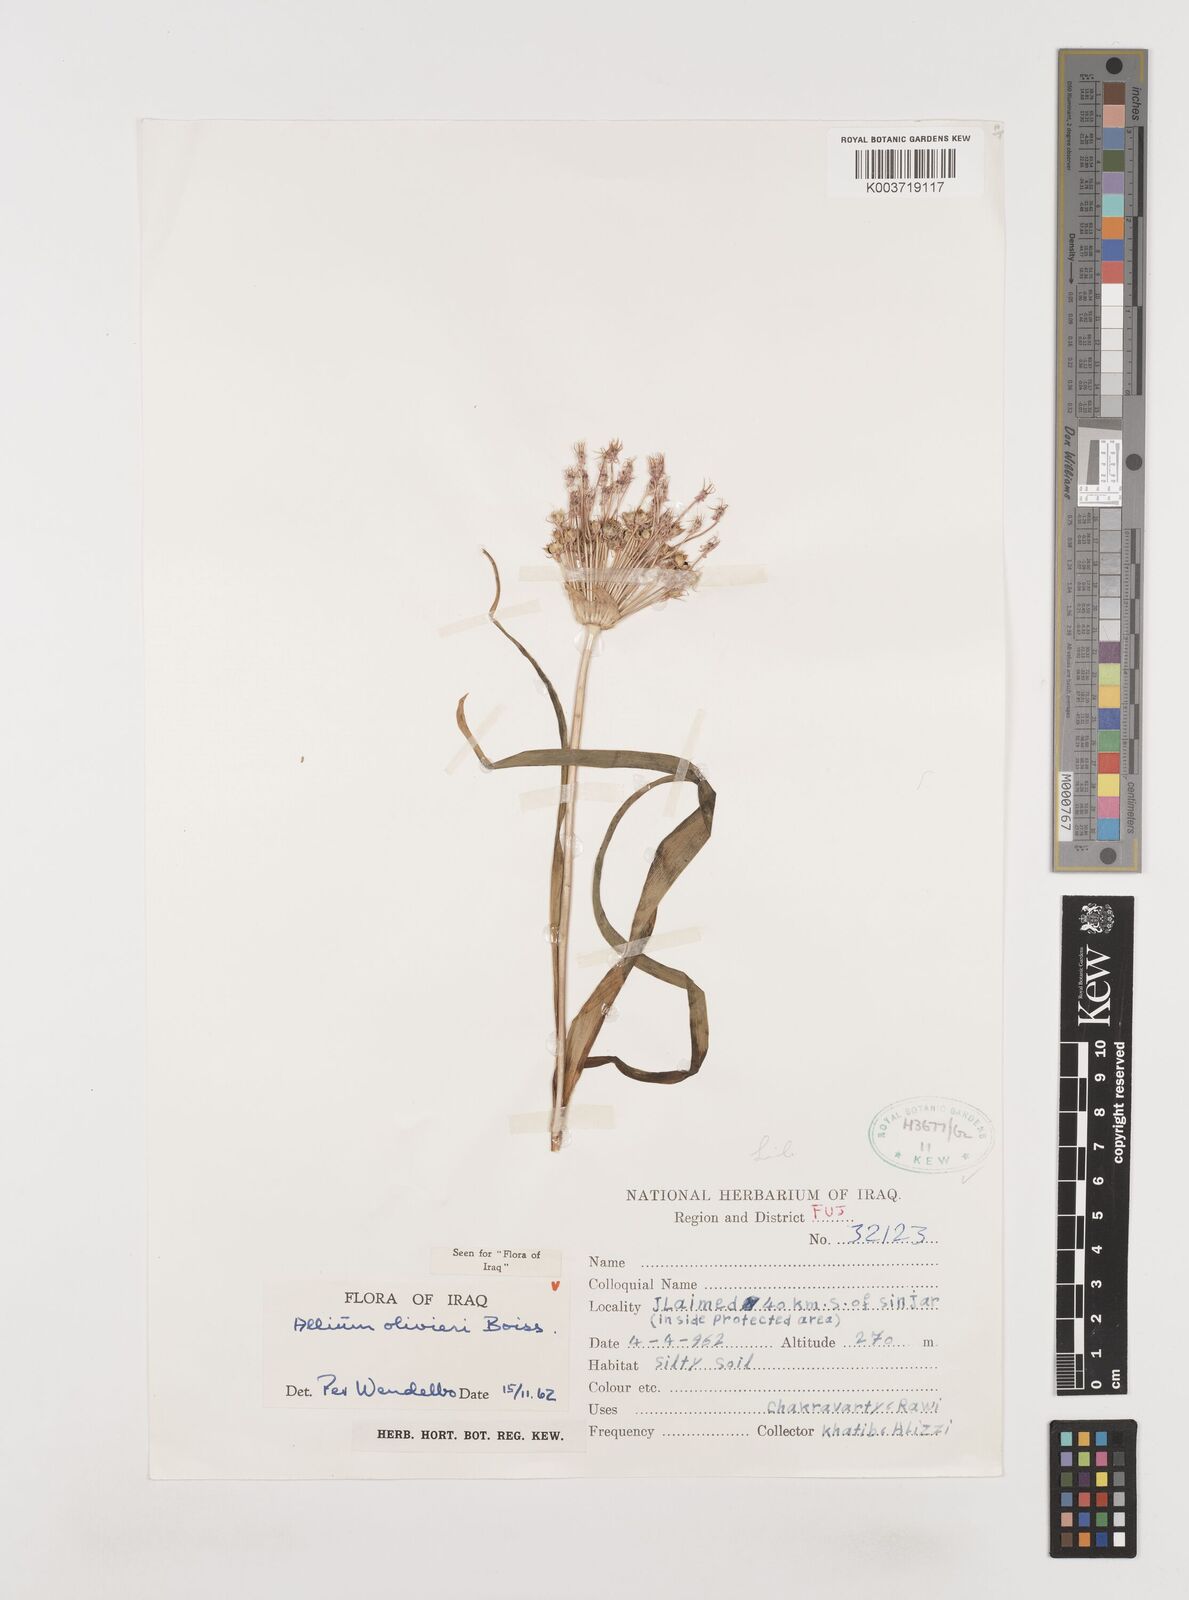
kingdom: Plantae
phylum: Tracheophyta
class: Liliopsida
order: Asparagales
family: Amaryllidaceae
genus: Allium
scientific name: Allium olivieri
